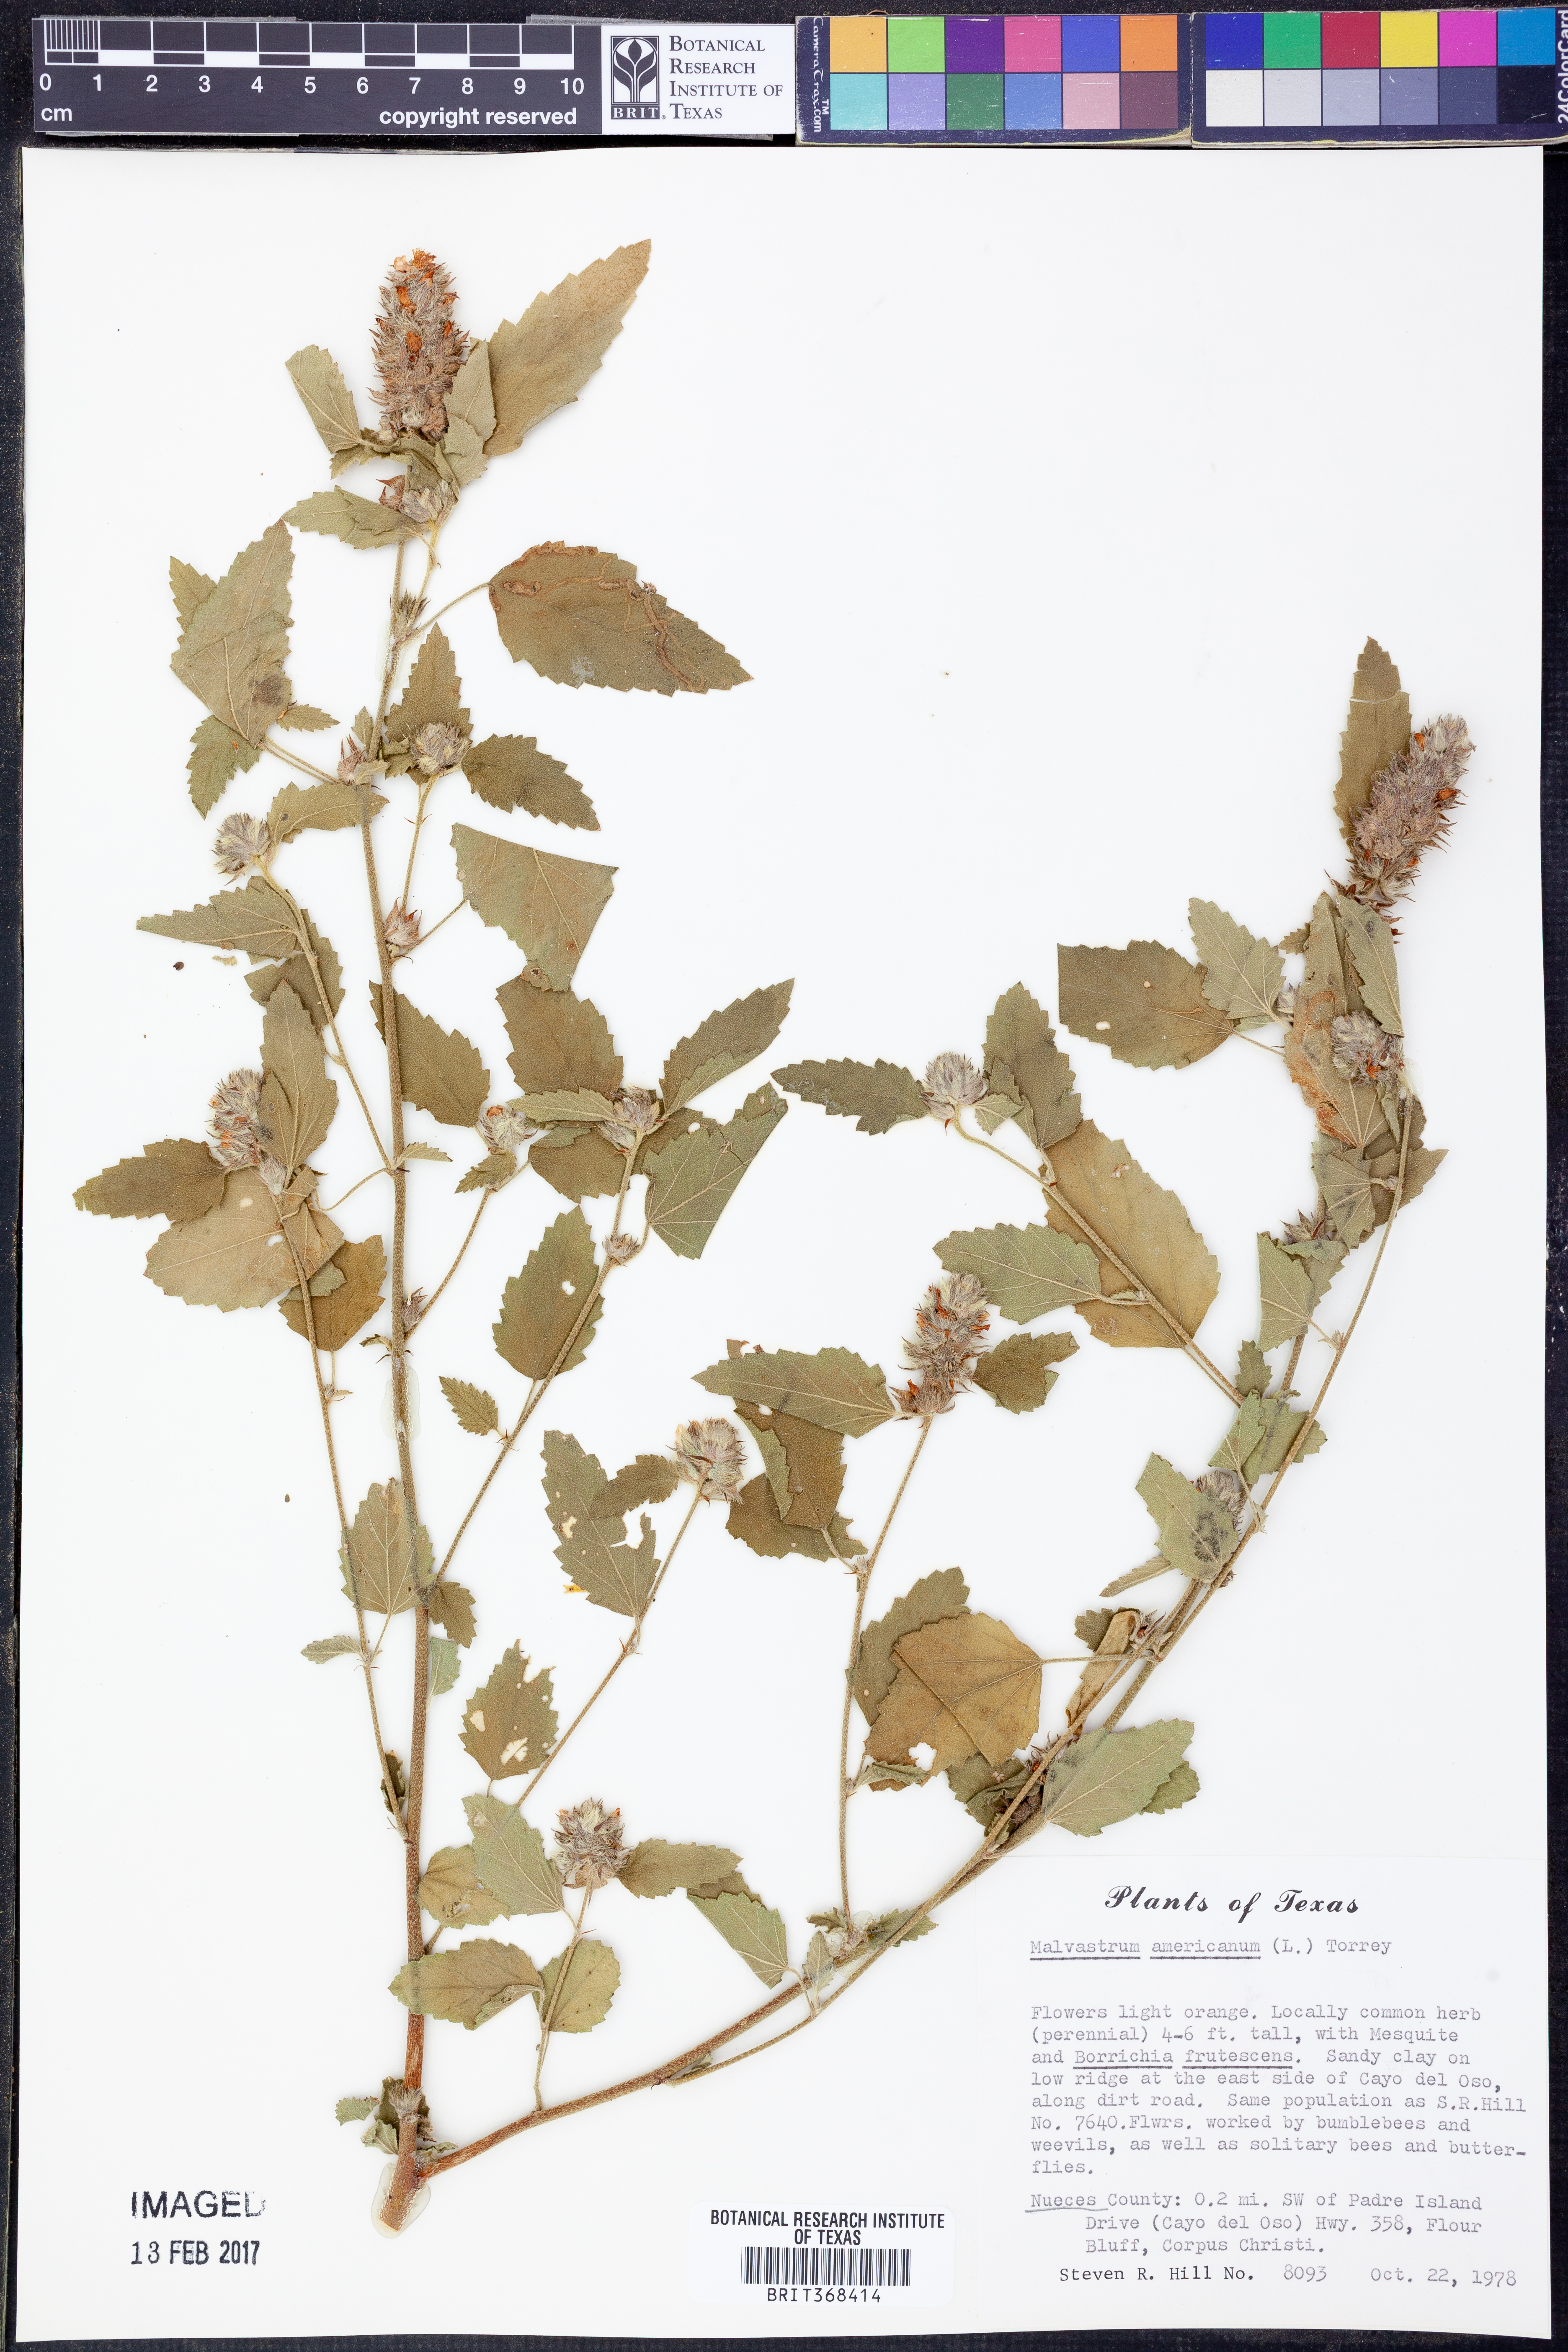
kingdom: Plantae
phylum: Tracheophyta
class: Magnoliopsida
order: Malvales
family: Malvaceae
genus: Malvastrum
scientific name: Malvastrum americanum
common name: Spiked malvastrum
